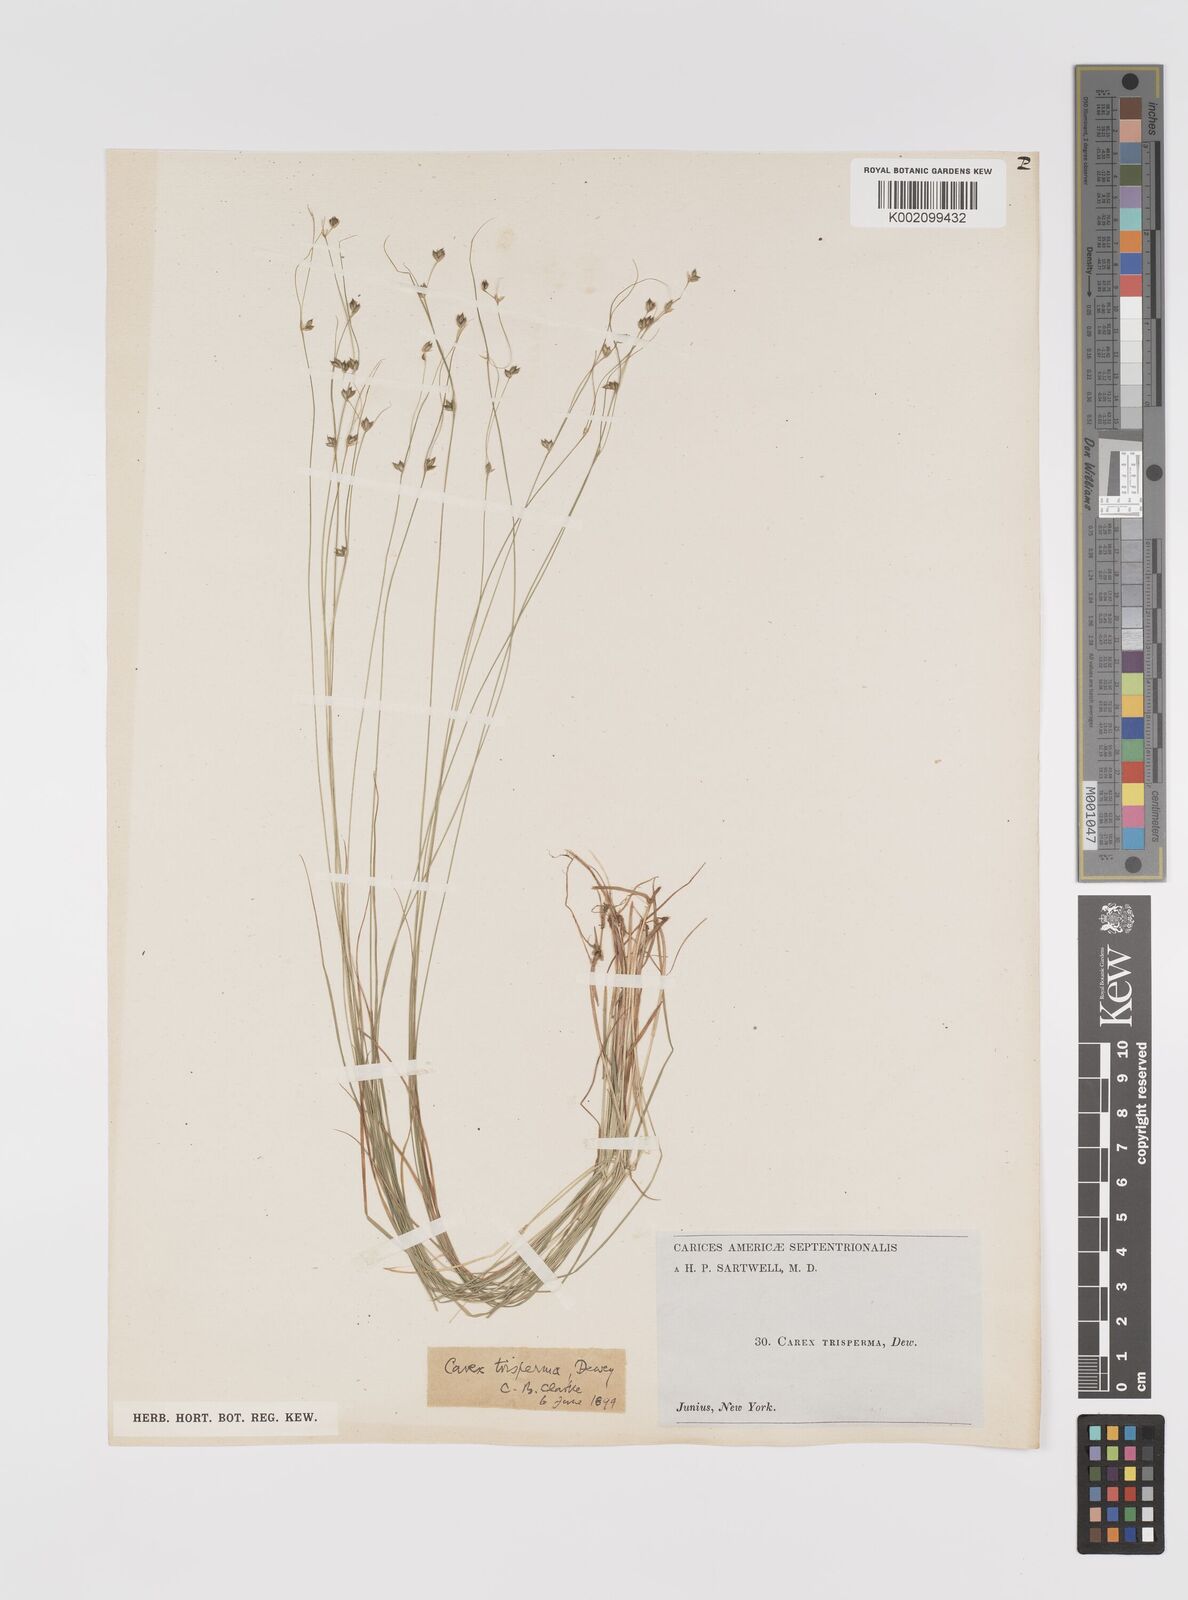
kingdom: Plantae
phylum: Tracheophyta
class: Liliopsida
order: Poales
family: Cyperaceae
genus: Carex
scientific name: Carex trisperma
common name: Three-seeded sedge
